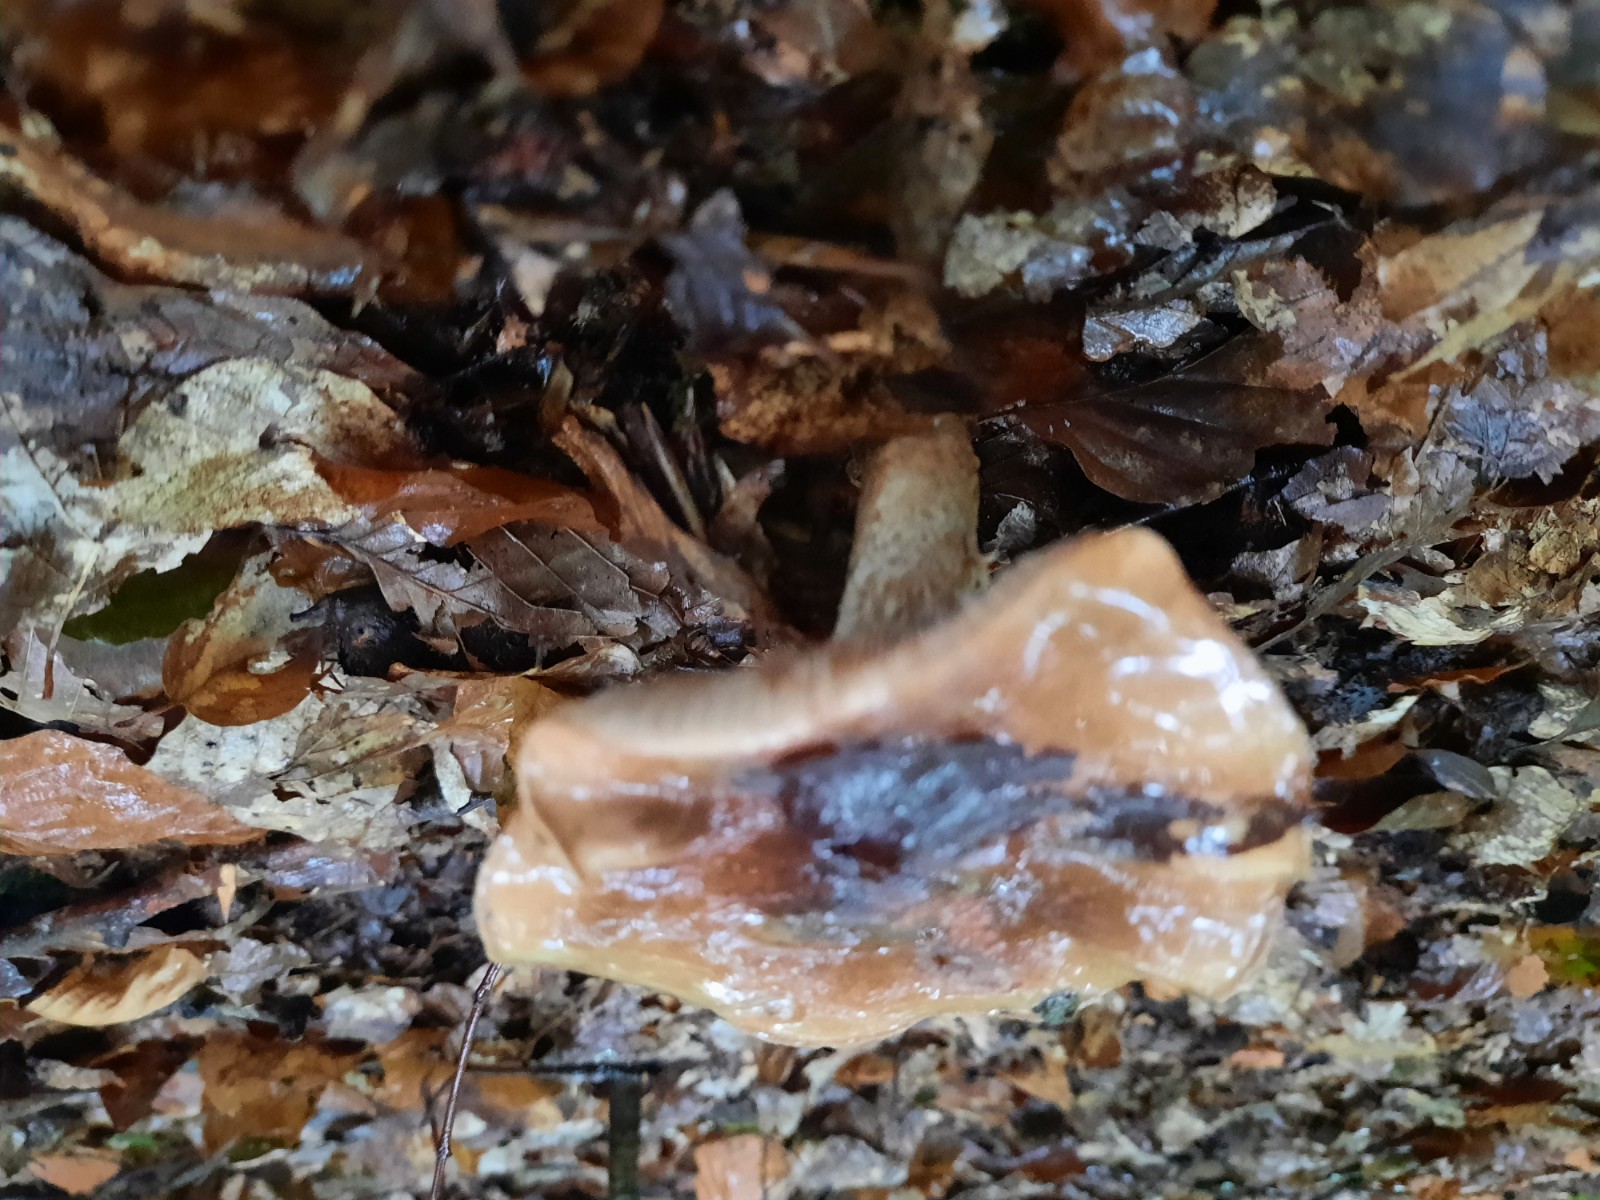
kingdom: Fungi
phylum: Basidiomycota
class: Agaricomycetes
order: Agaricales
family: Tricholomataceae
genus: Tricholoma
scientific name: Tricholoma fulvum
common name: birke-ridderhat
